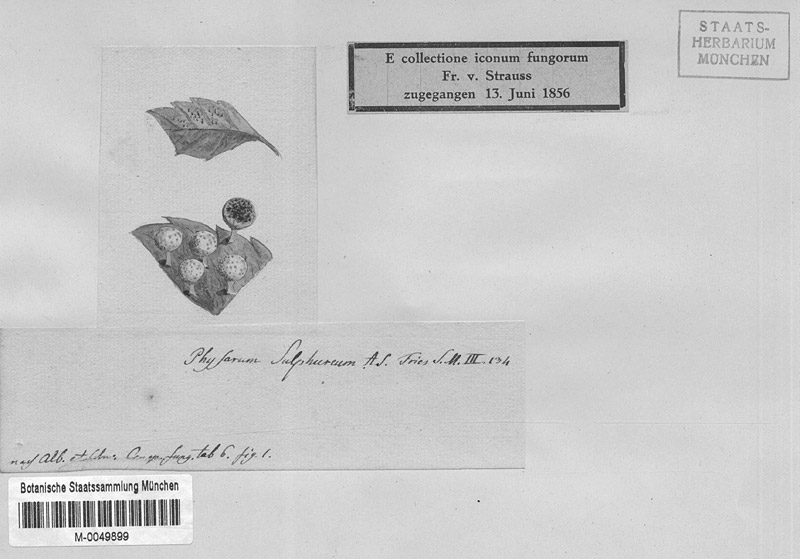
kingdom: Protozoa
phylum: Mycetozoa
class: Myxomycetes
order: Physarales
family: Physaraceae
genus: Physarum
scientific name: Physarum sulphureum
